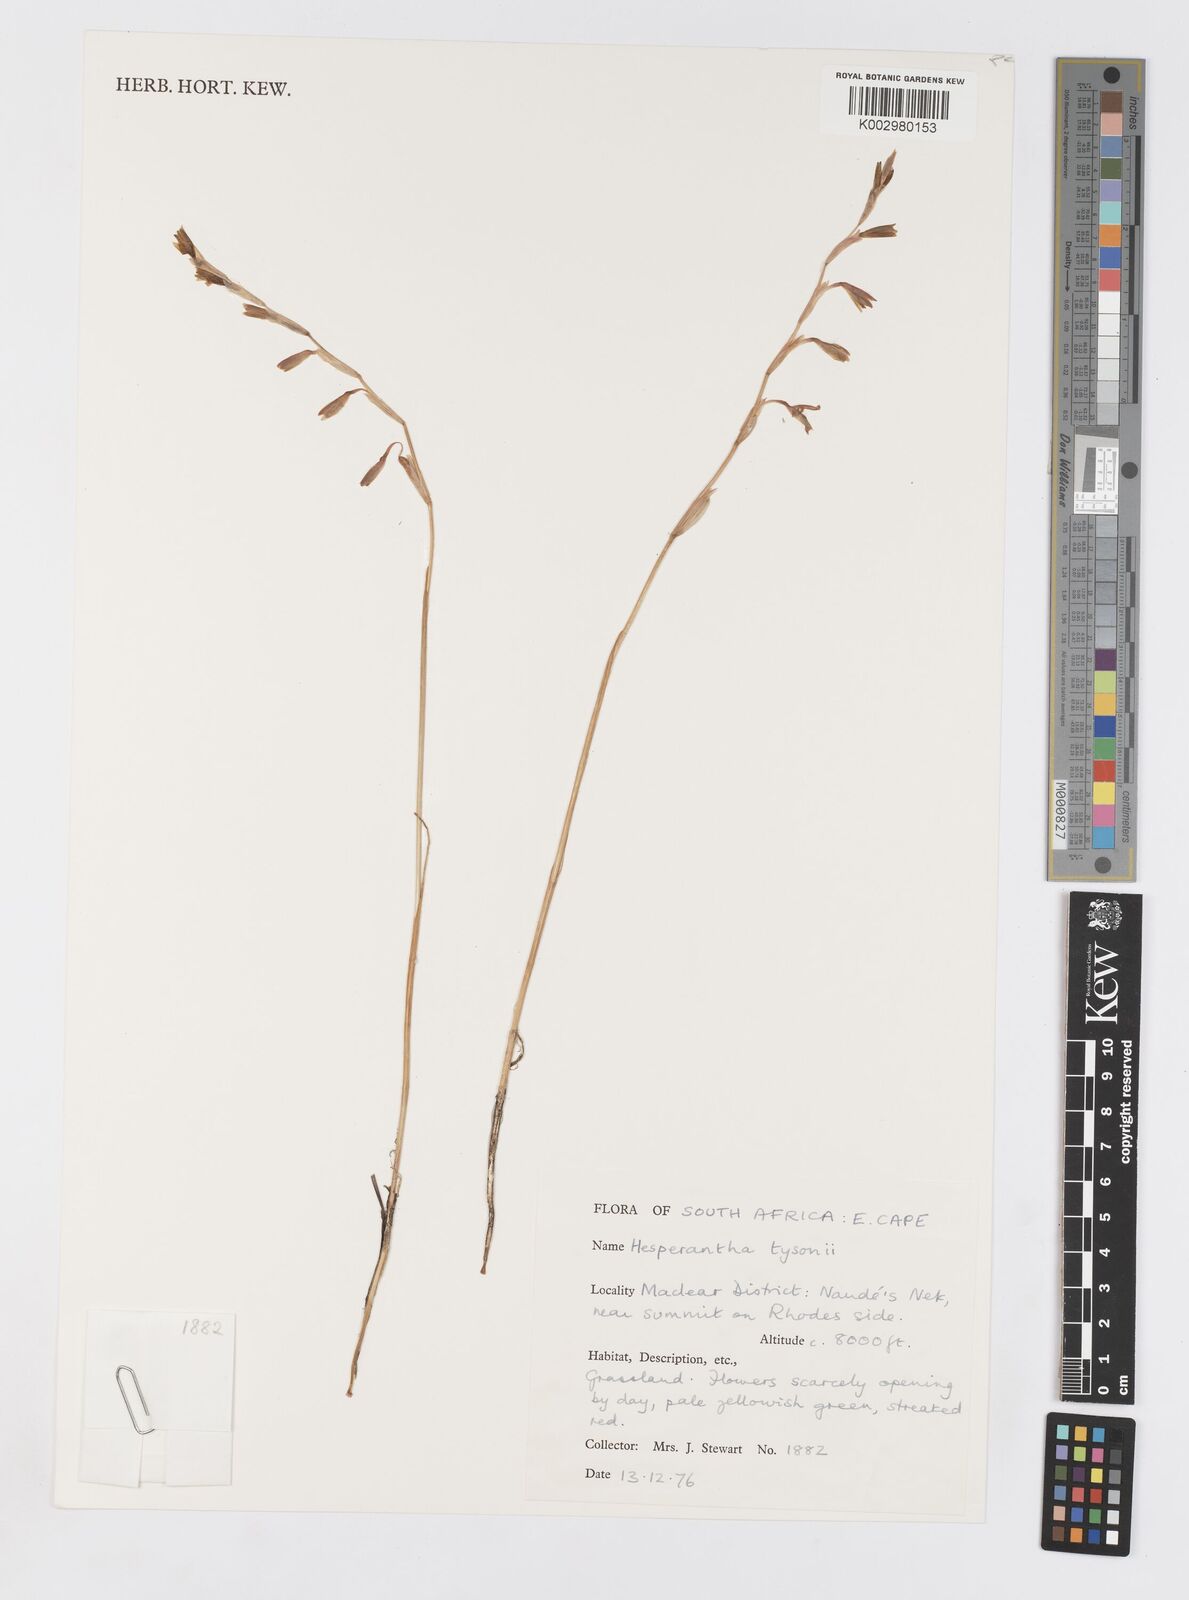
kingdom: Plantae
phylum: Tracheophyta
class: Liliopsida
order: Asparagales
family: Iridaceae
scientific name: Iridaceae
